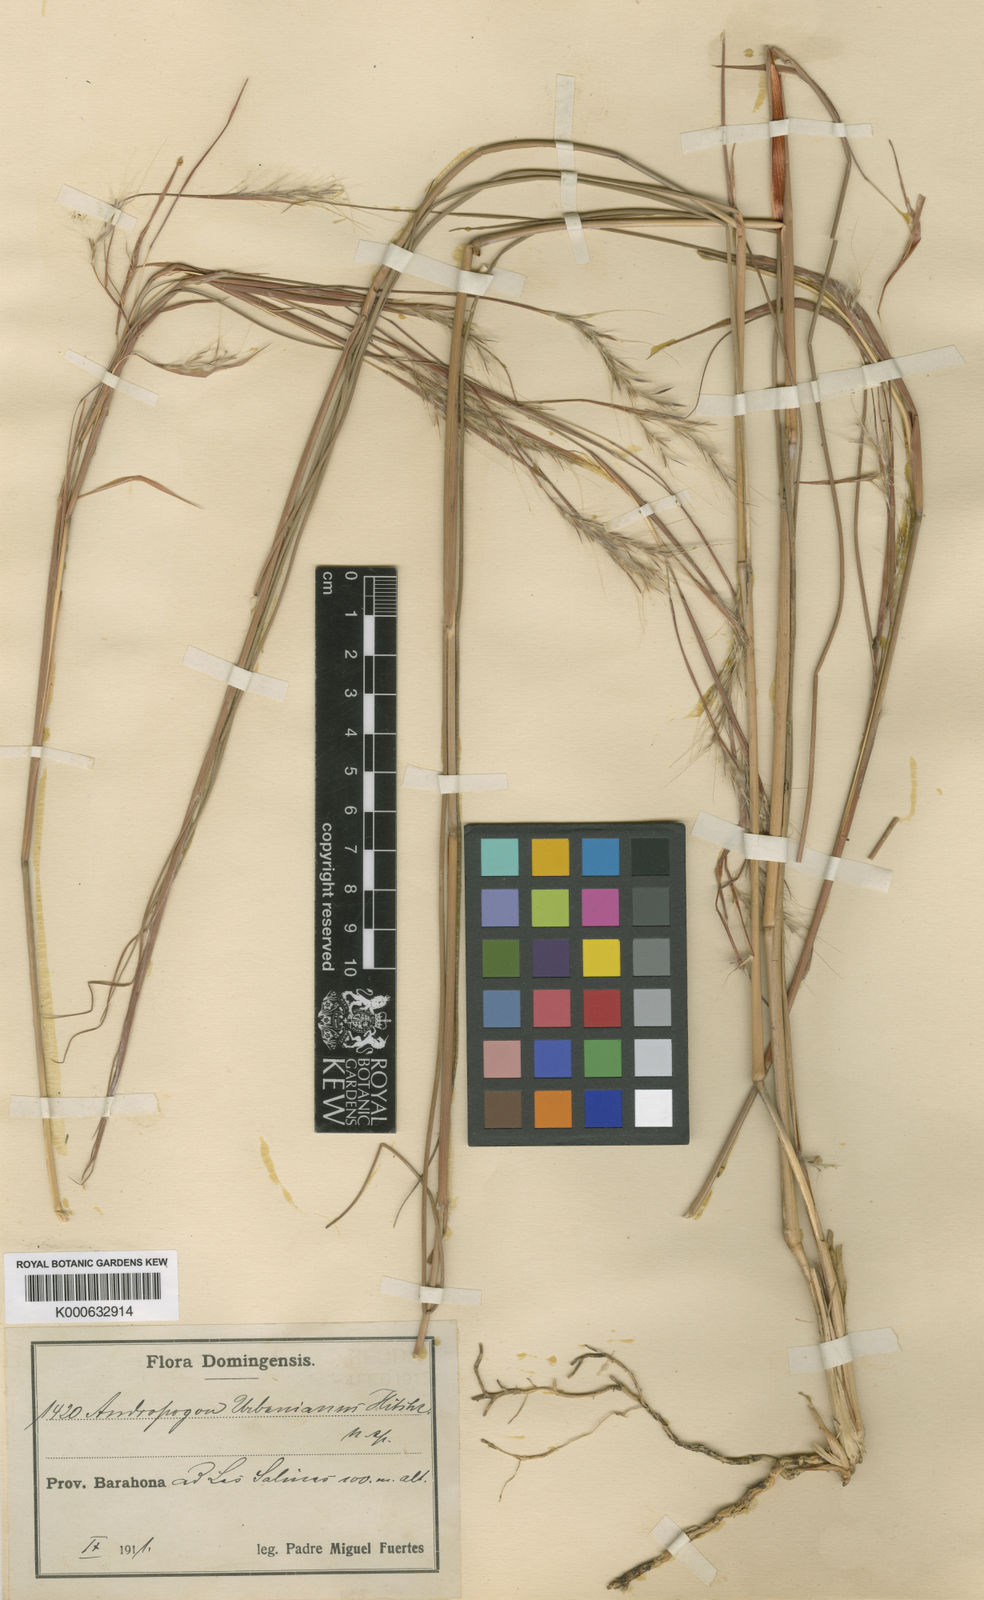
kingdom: Plantae
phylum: Tracheophyta
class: Liliopsida
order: Poales
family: Poaceae
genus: Andropogon
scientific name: Andropogon urbanianus
